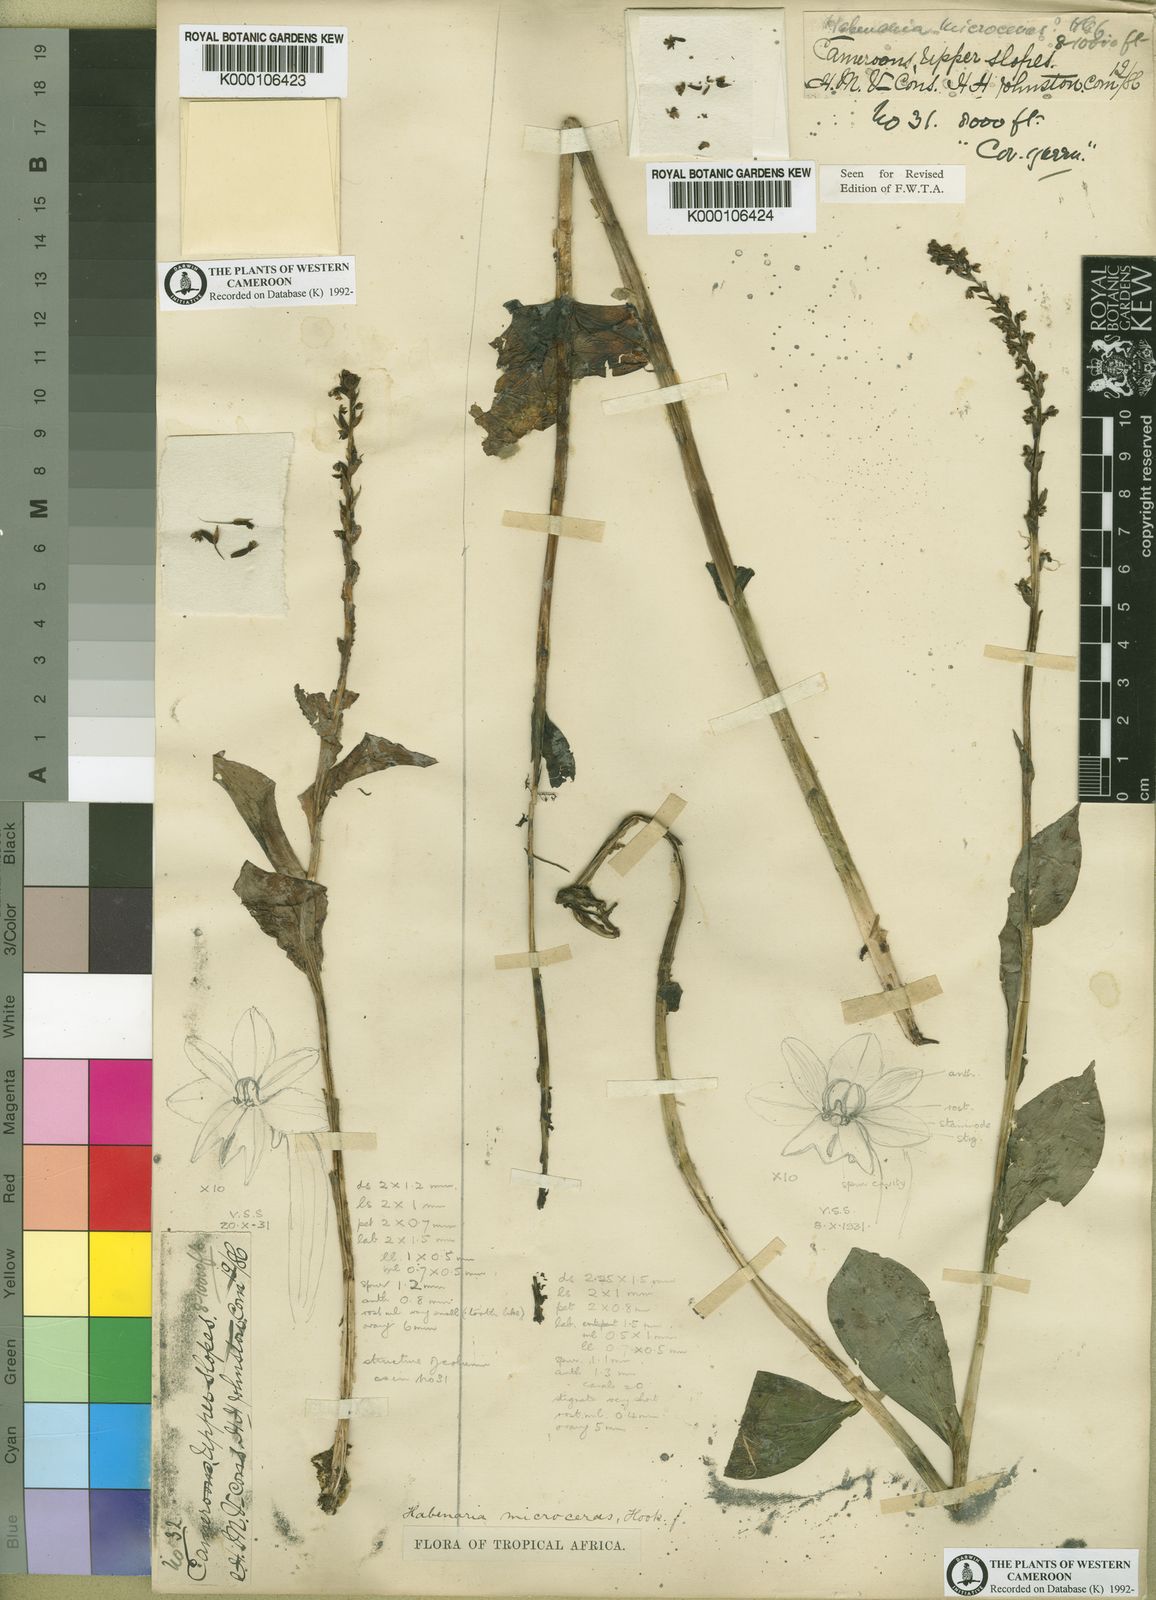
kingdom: Plantae
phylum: Tracheophyta
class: Liliopsida
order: Asparagales
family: Orchidaceae
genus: Habenaria
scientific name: Habenaria microceras
